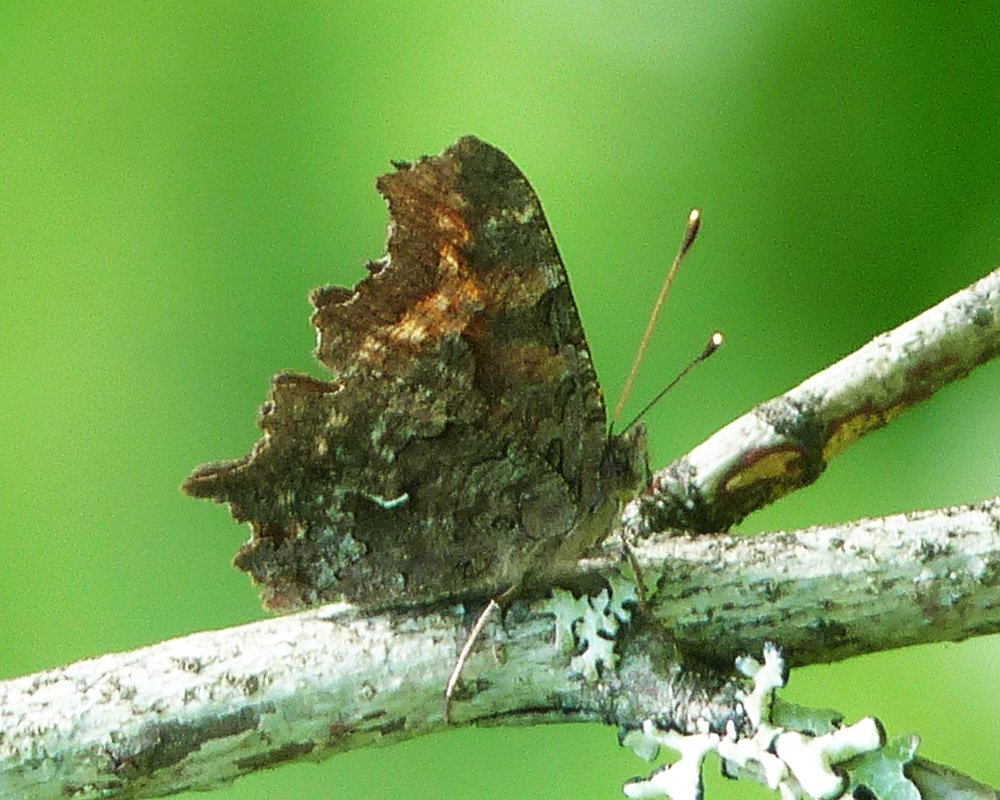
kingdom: Animalia
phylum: Arthropoda
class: Insecta
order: Lepidoptera
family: Nymphalidae
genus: Polygonia
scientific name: Polygonia faunus
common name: Green Comma
